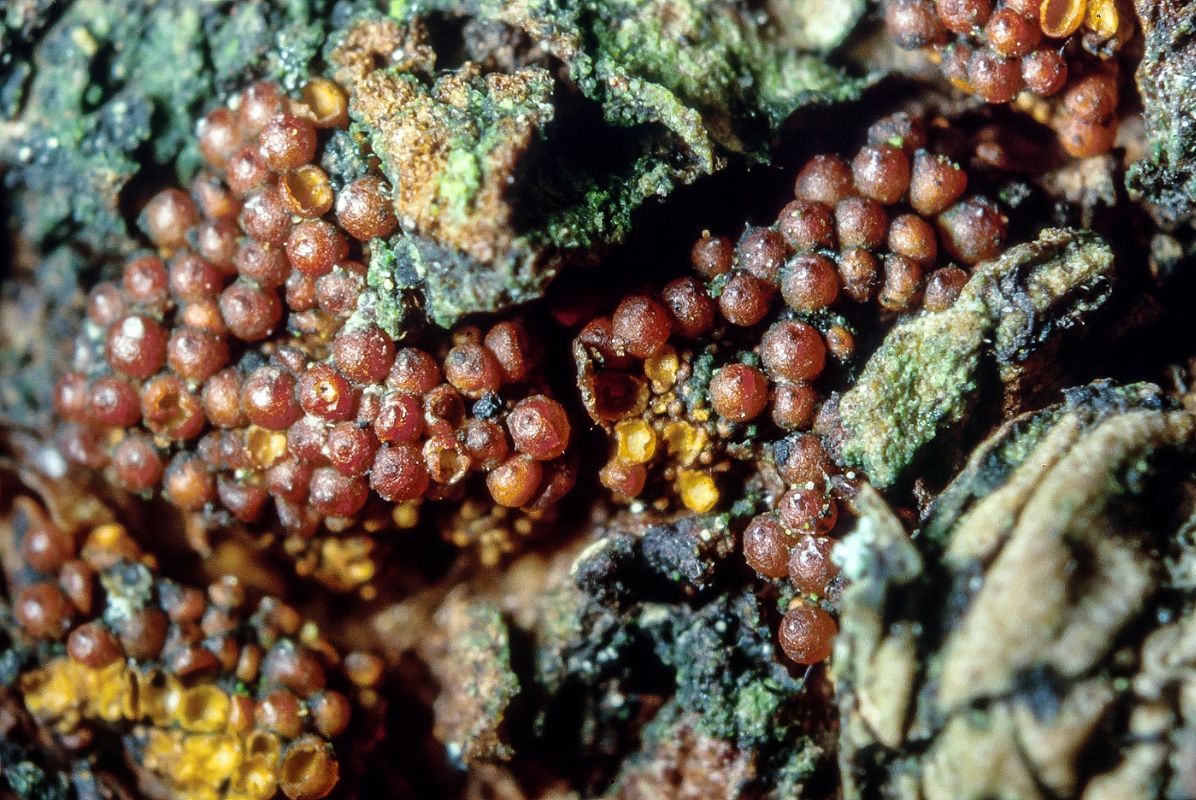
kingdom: Fungi
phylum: Ascomycota
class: Sordariomycetes
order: Hypocreales
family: Nectriaceae
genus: Corinectria
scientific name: Corinectria fuckeliana
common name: grankræft-cinnobersvamp
